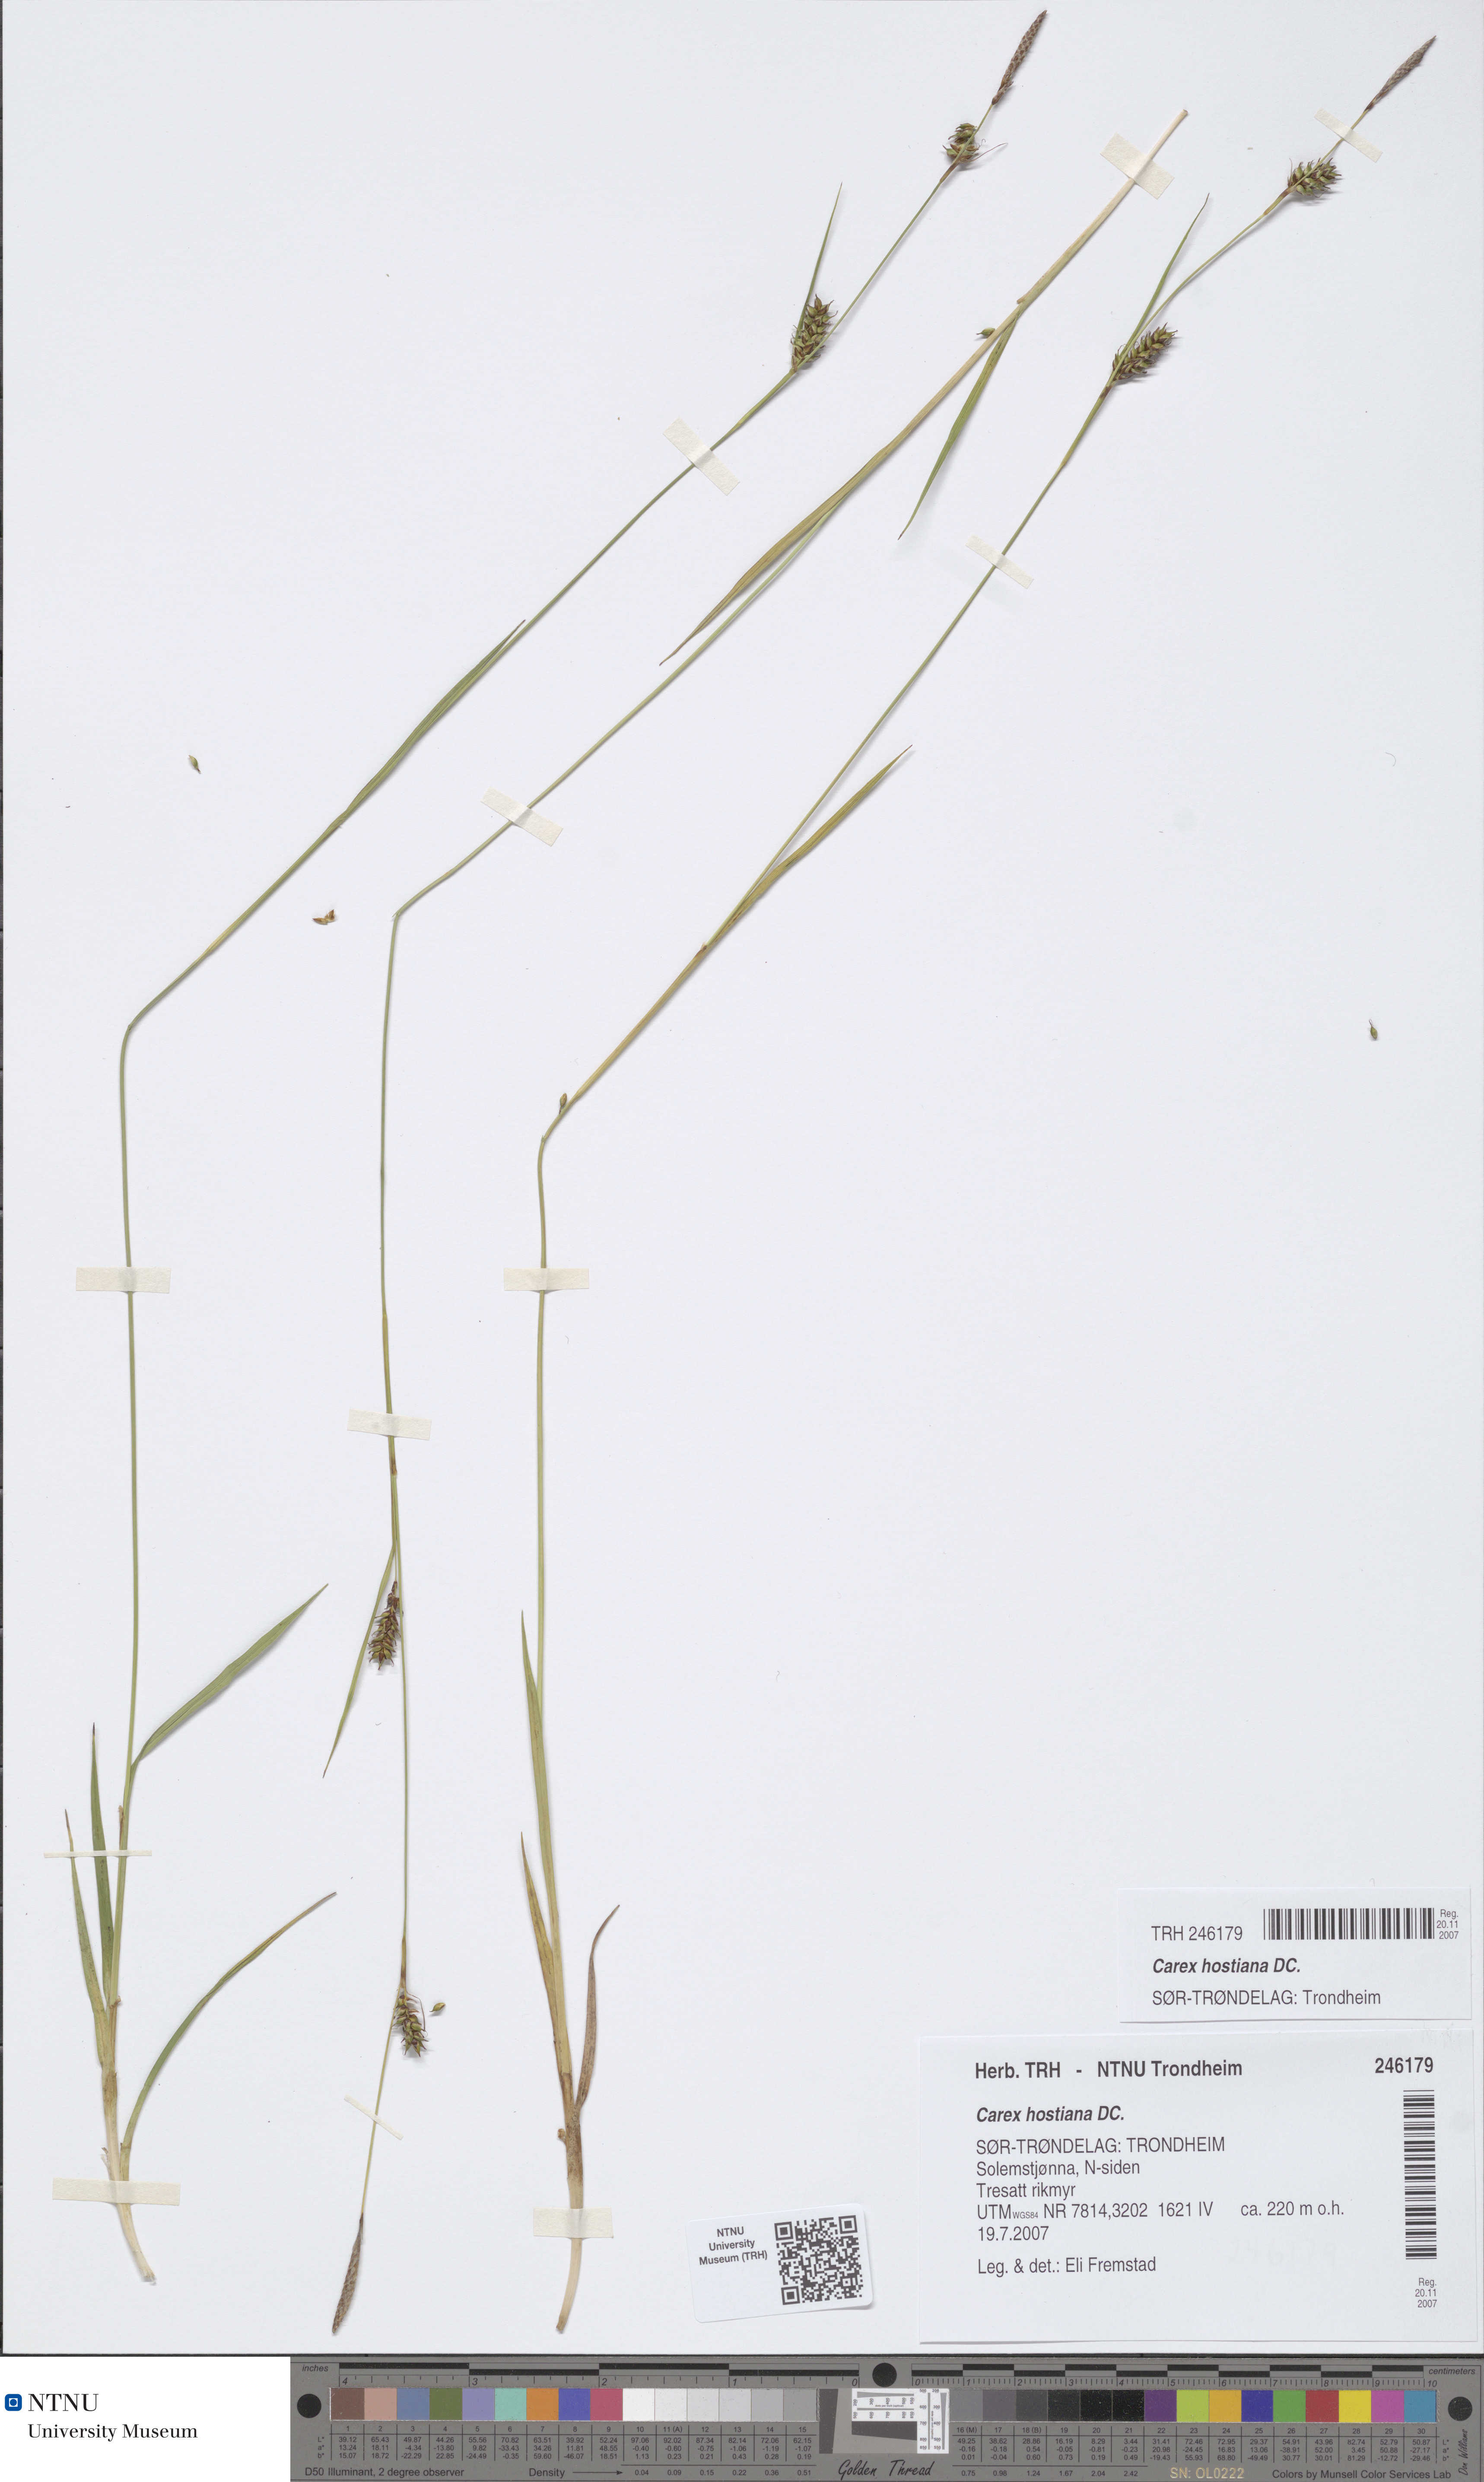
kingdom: Plantae
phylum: Tracheophyta
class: Liliopsida
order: Poales
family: Cyperaceae
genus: Carex
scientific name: Carex hostiana
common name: Tawny sedge
